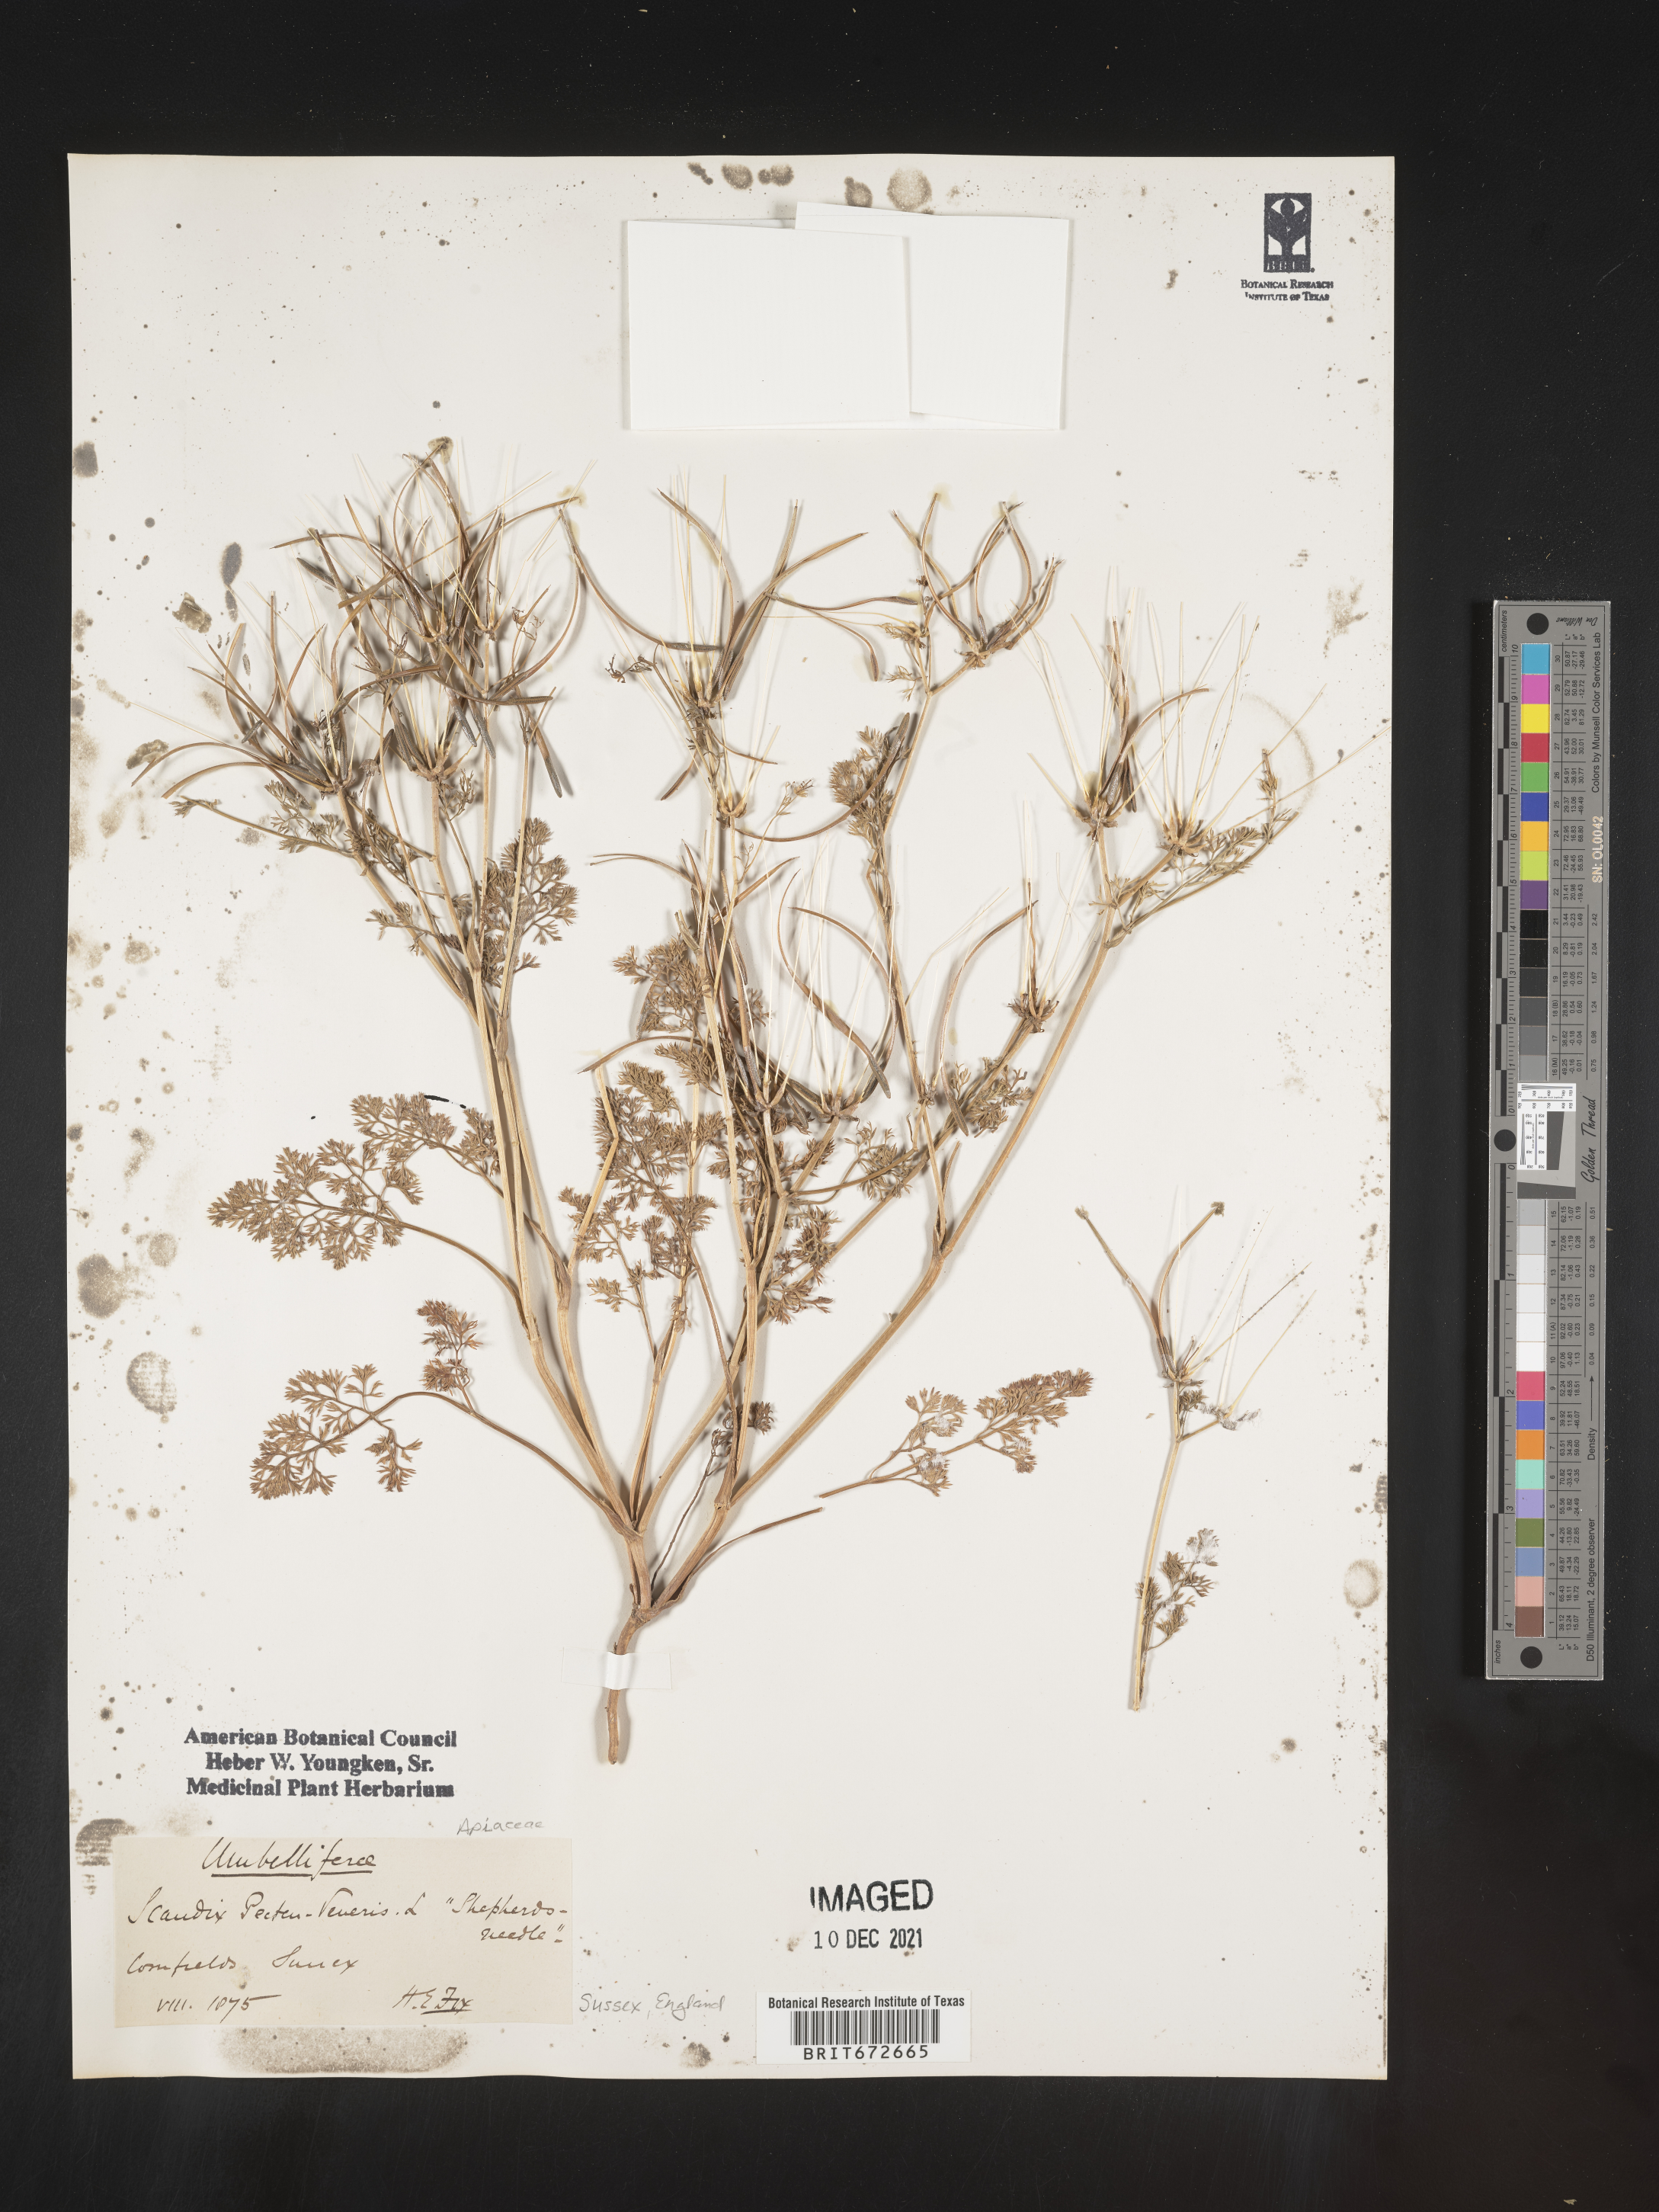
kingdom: Plantae
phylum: Tracheophyta
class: Magnoliopsida
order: Apiales
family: Apiaceae
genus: Scandix
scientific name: Scandix
